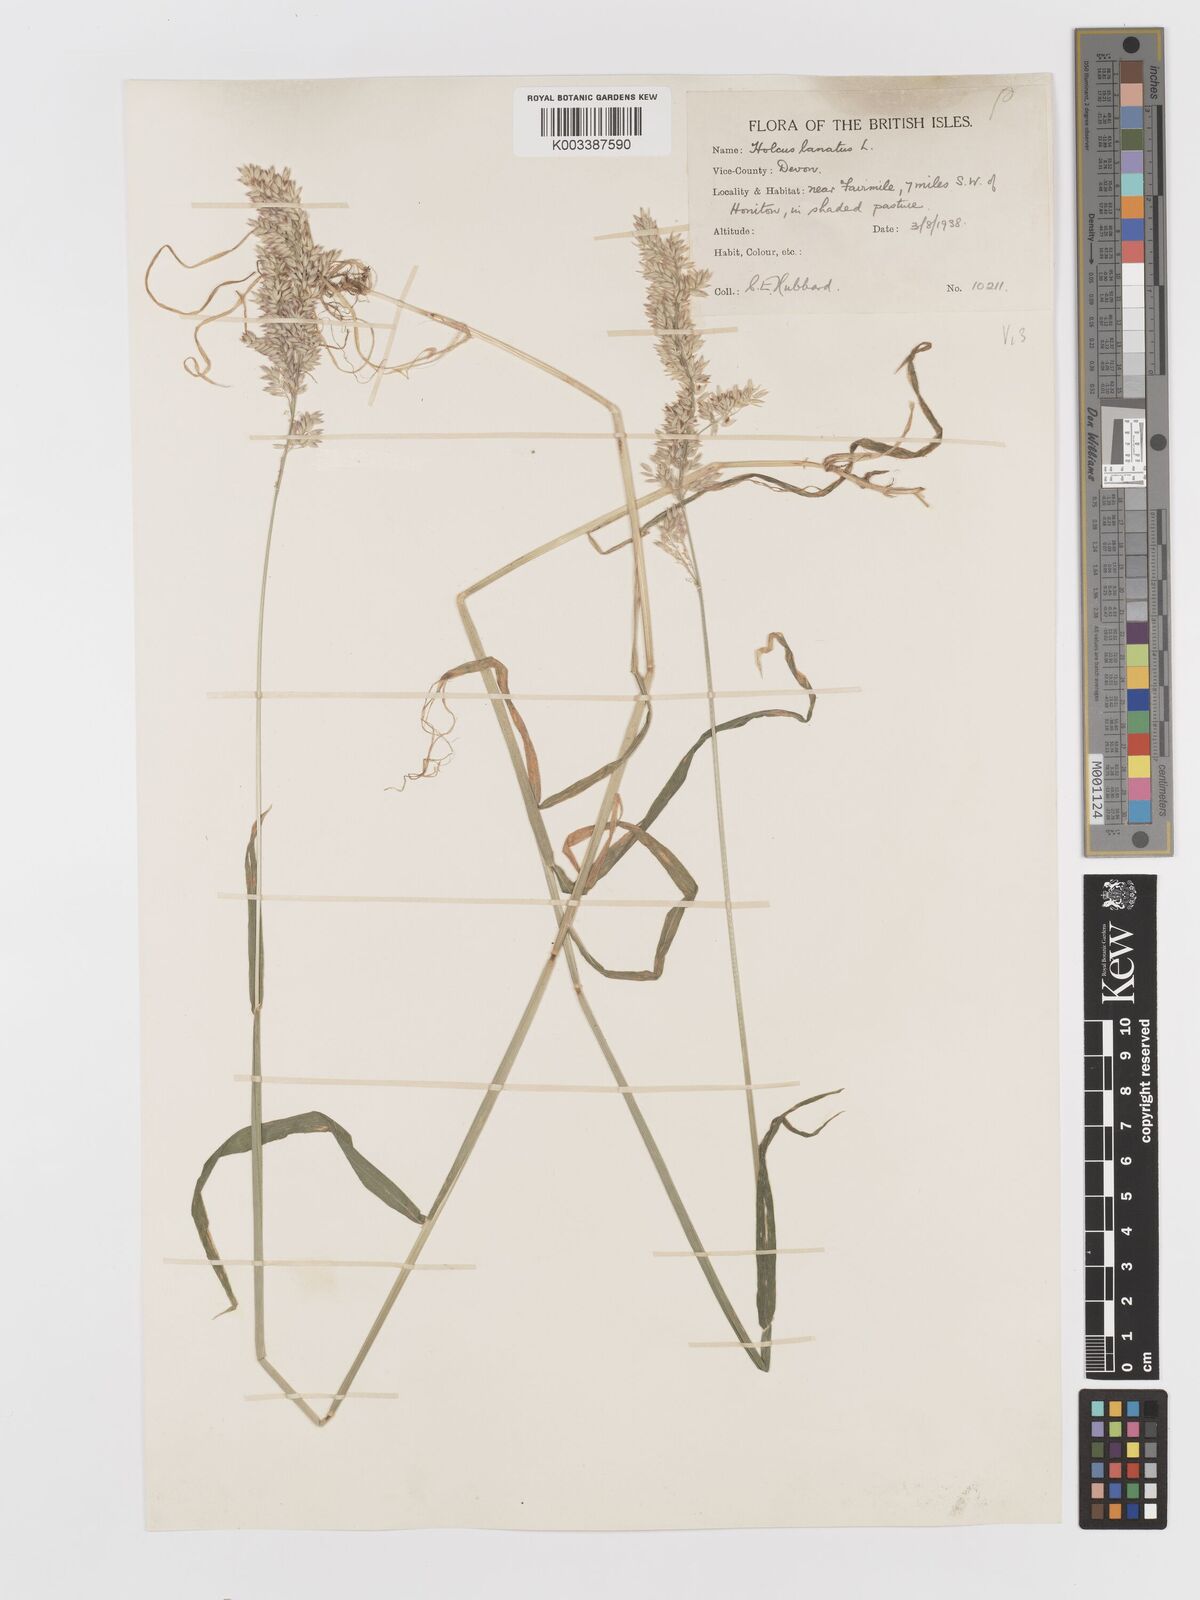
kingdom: Plantae
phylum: Tracheophyta
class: Liliopsida
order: Poales
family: Poaceae
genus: Holcus
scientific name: Holcus lanatus
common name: Yorkshire-fog
